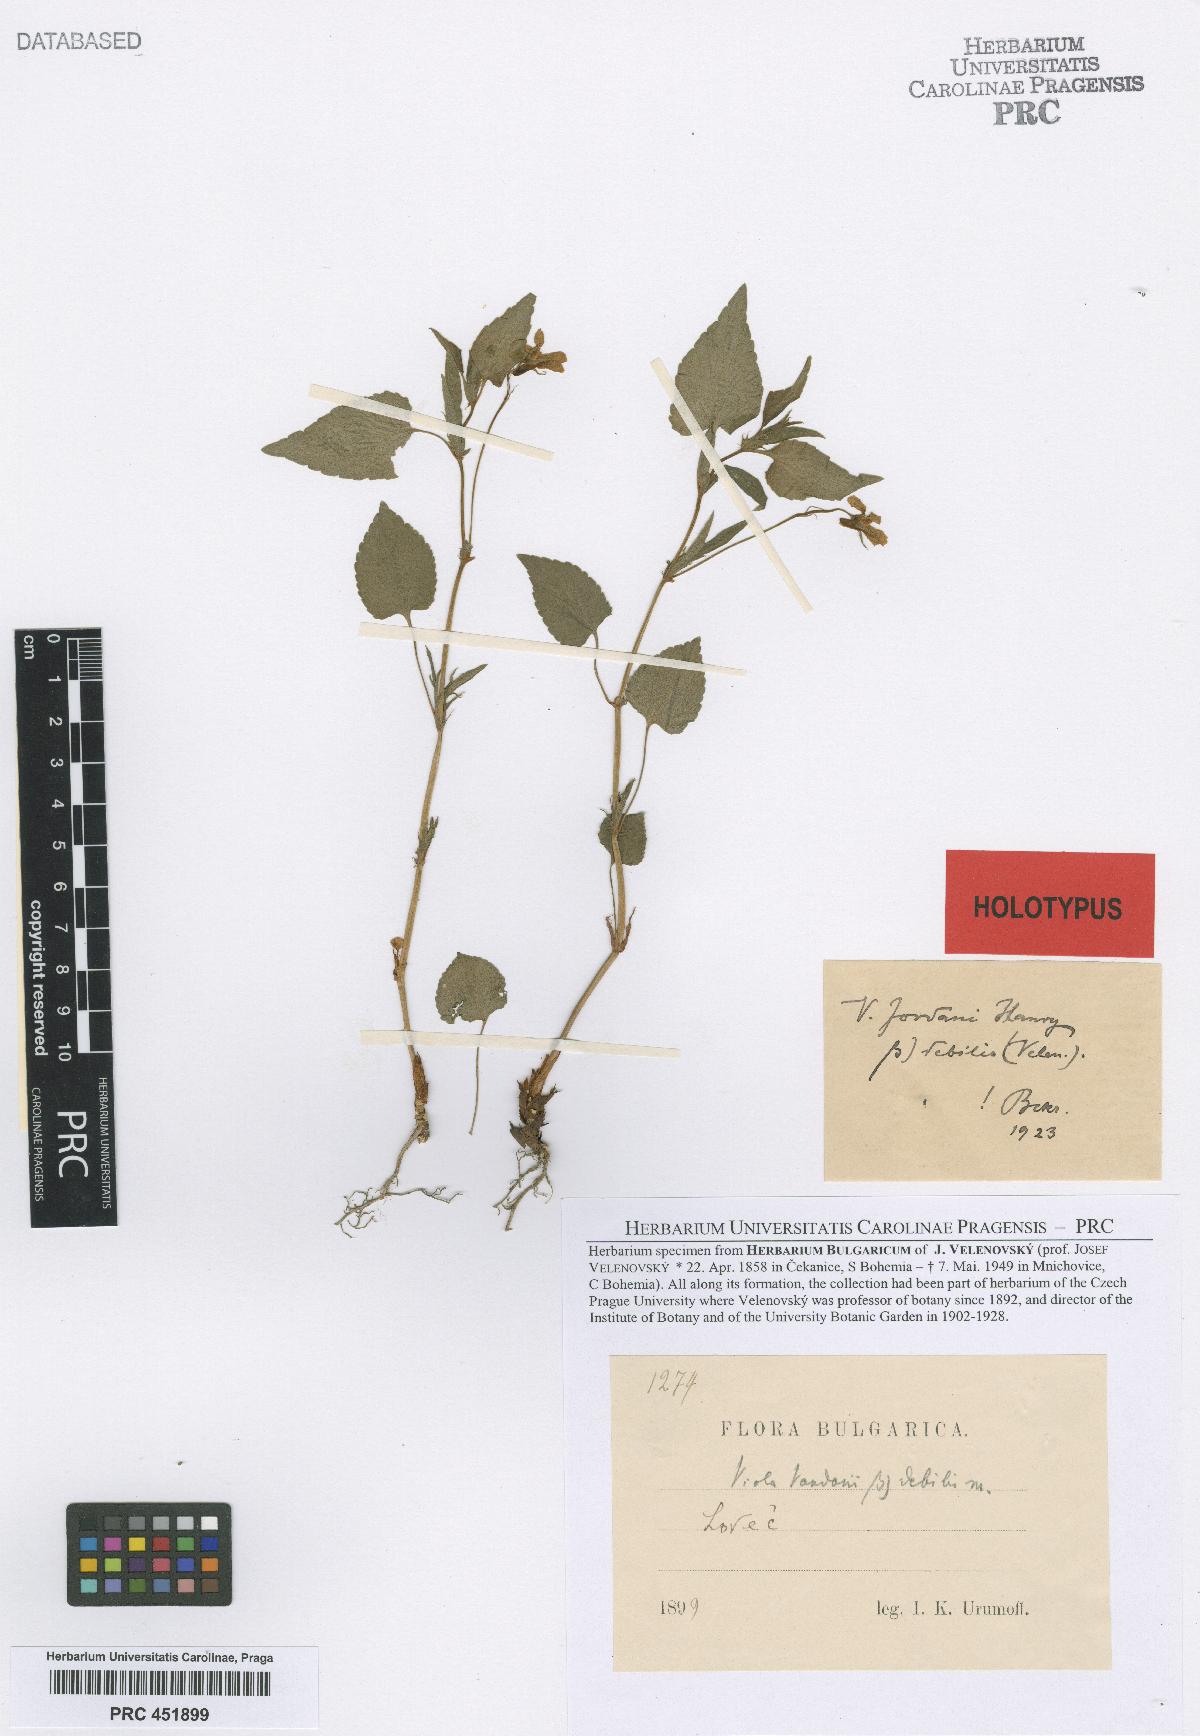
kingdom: Plantae
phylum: Tracheophyta
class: Magnoliopsida
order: Malpighiales
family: Violaceae
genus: Viola
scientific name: Viola jordanii
